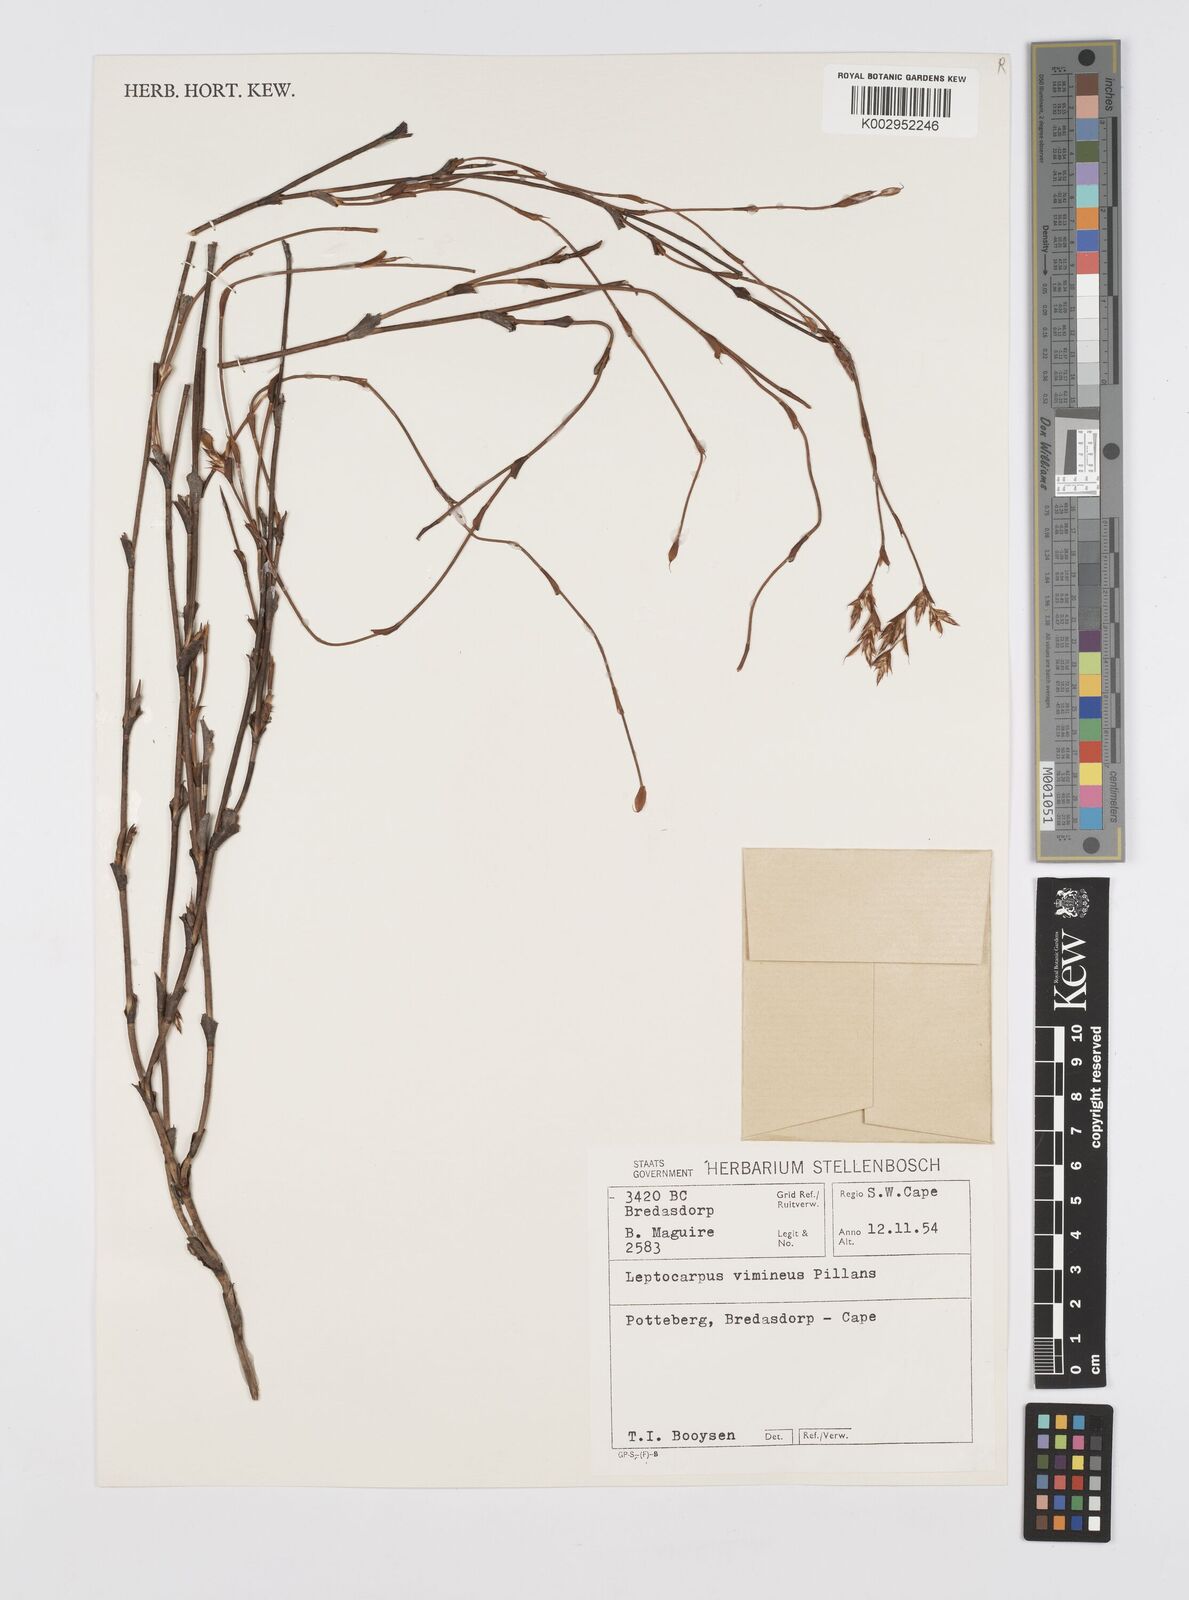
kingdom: Plantae
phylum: Tracheophyta
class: Liliopsida
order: Poales
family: Restionaceae
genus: Restio
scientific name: Restio vimineus
